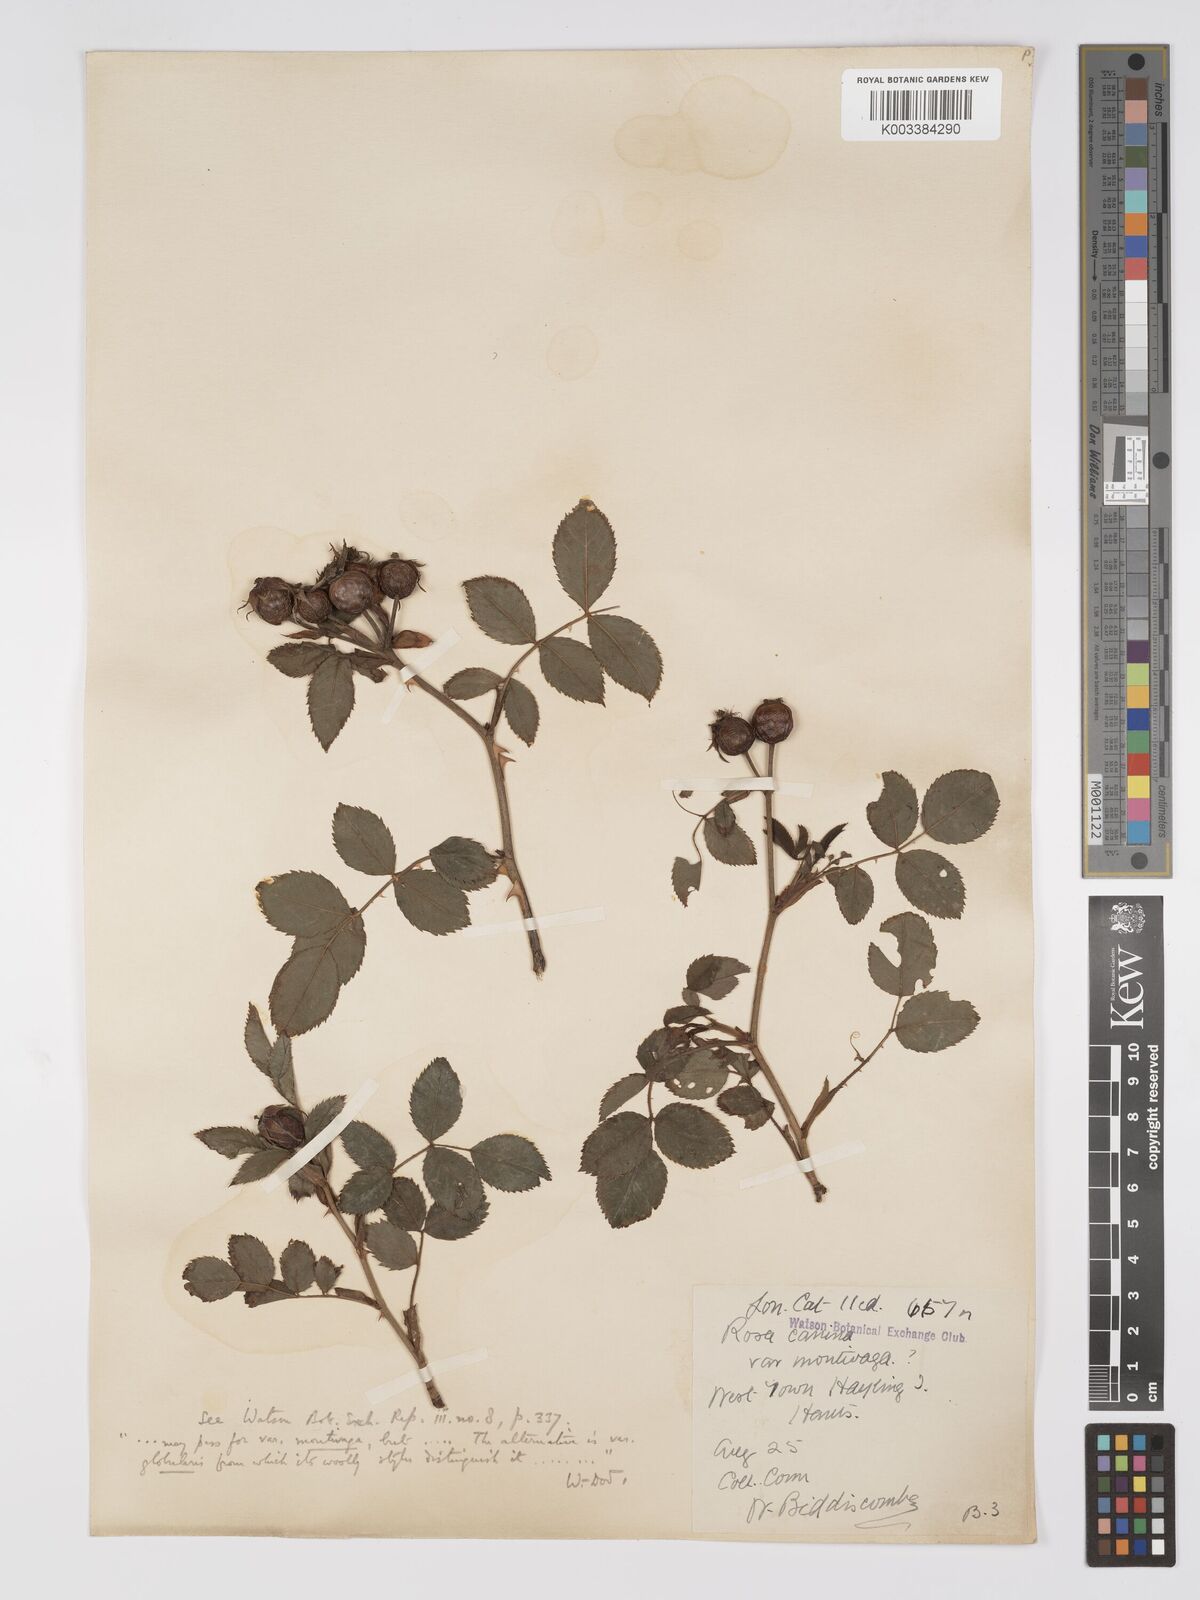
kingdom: Plantae
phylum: Tracheophyta
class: Magnoliopsida
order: Rosales
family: Rosaceae
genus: Rosa
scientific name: Rosa canina
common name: Dog rose
